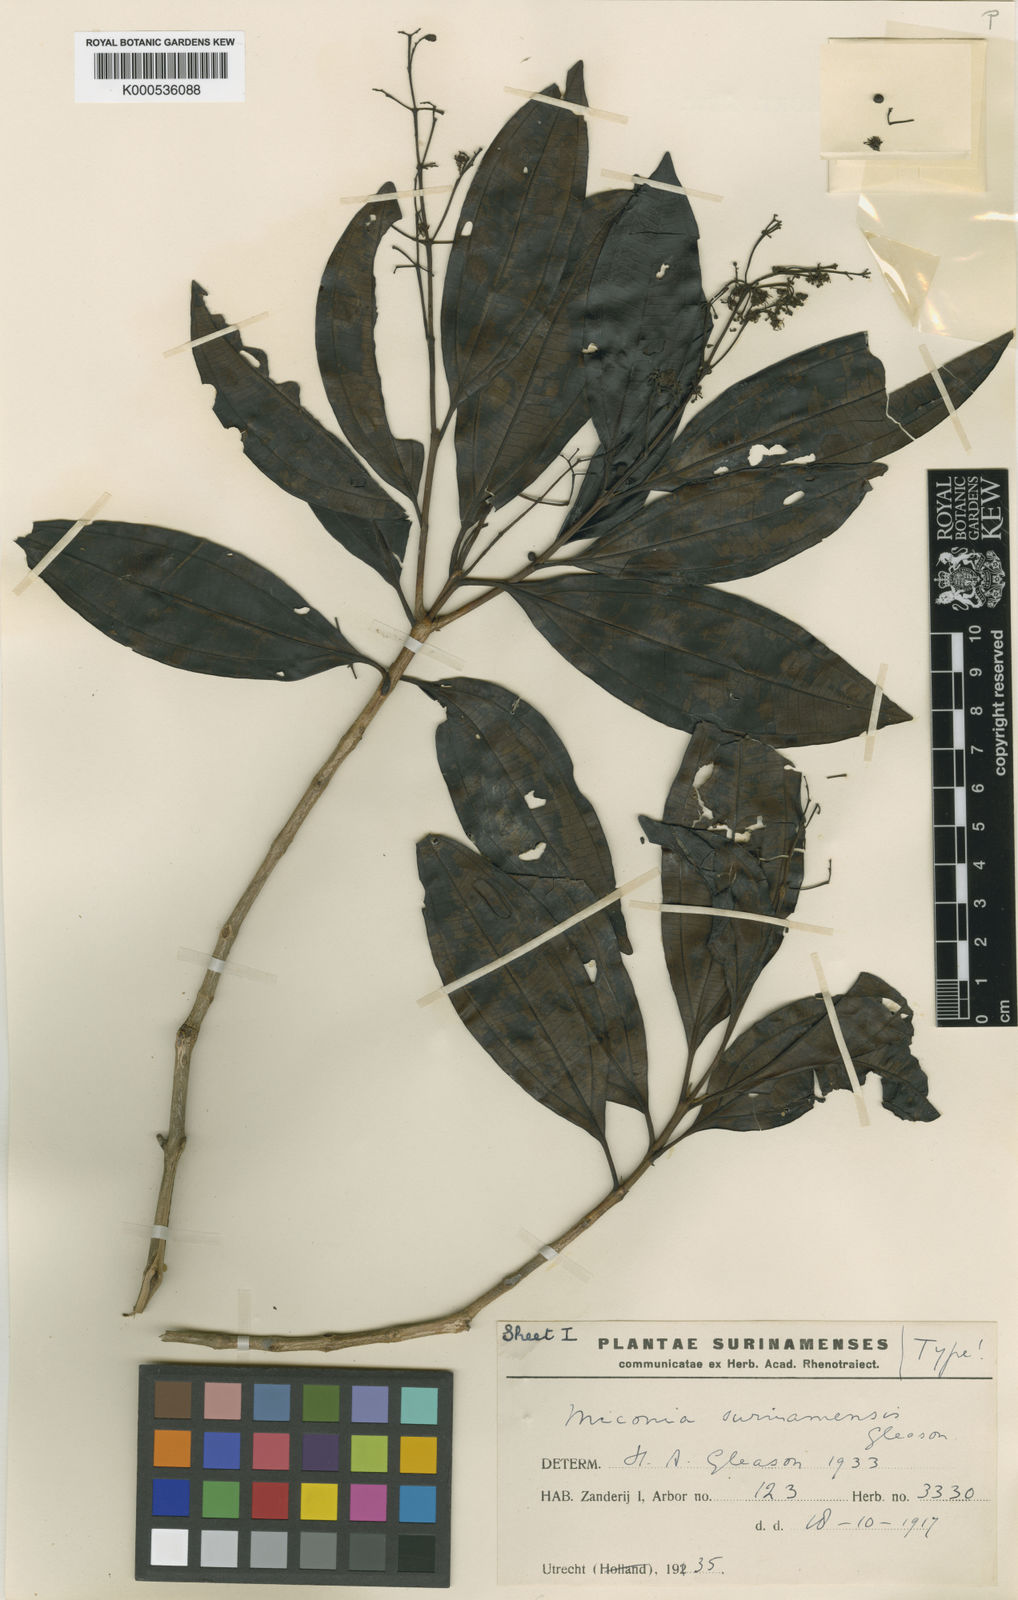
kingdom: Plantae
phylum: Tracheophyta
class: Magnoliopsida
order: Myrtales
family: Melastomataceae
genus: Miconia
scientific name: Miconia poeppigii
